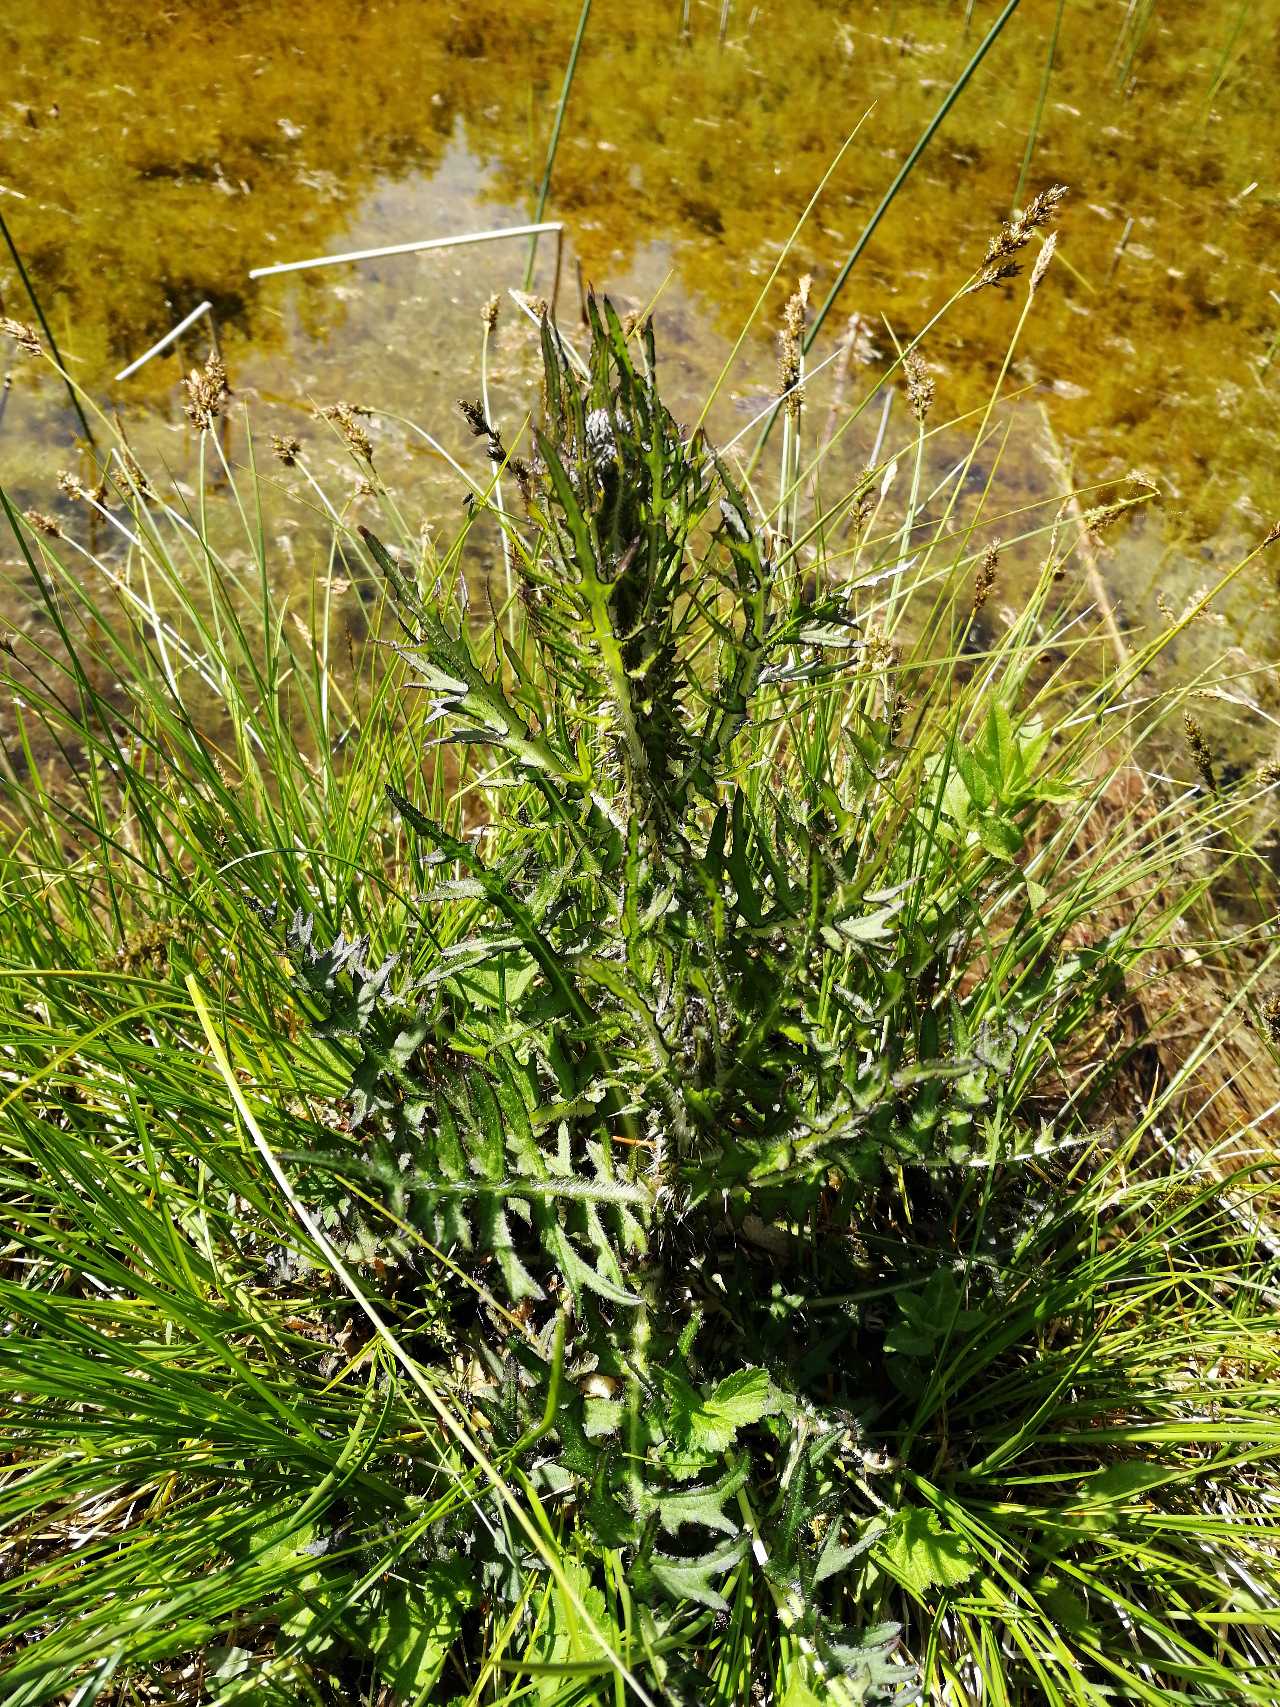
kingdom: Plantae
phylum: Tracheophyta
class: Magnoliopsida
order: Asterales
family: Asteraceae
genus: Cirsium
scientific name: Cirsium palustre
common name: Kær-tidsel
